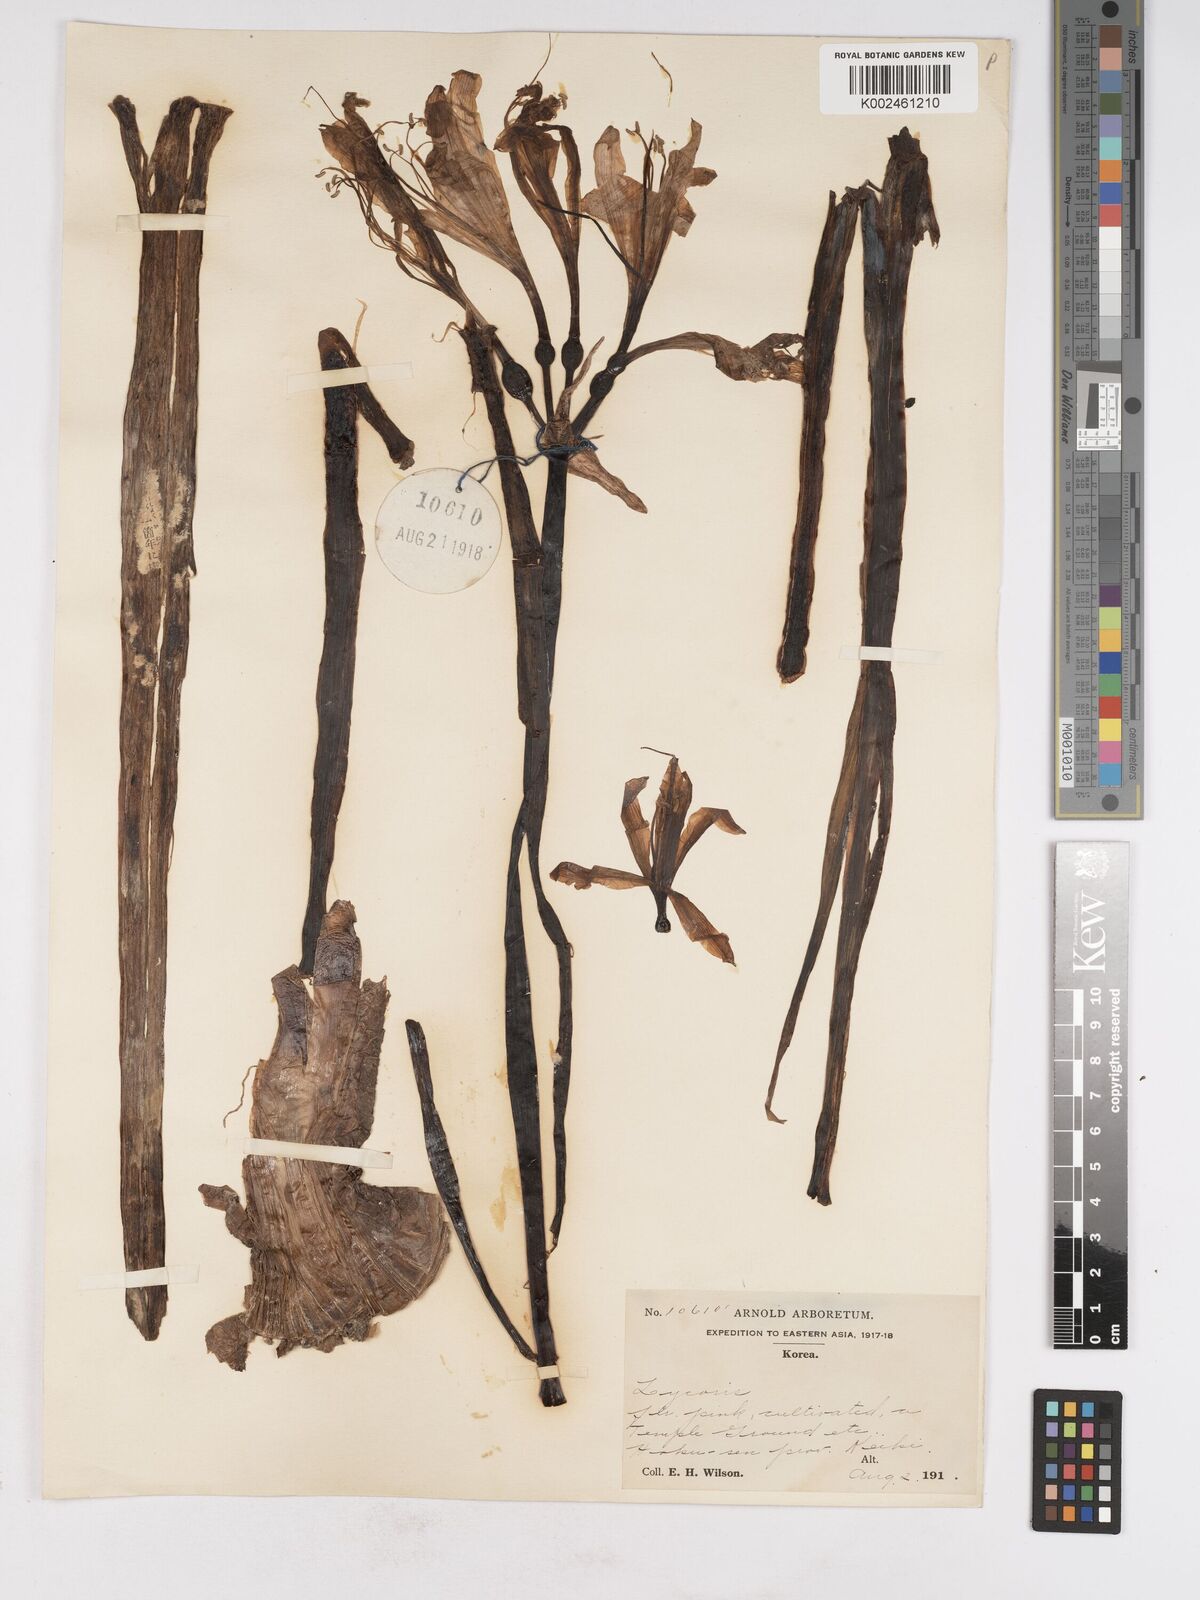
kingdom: Plantae
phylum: Tracheophyta
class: Liliopsida
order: Asparagales
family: Amaryllidaceae
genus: Lycoris
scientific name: Lycoris
